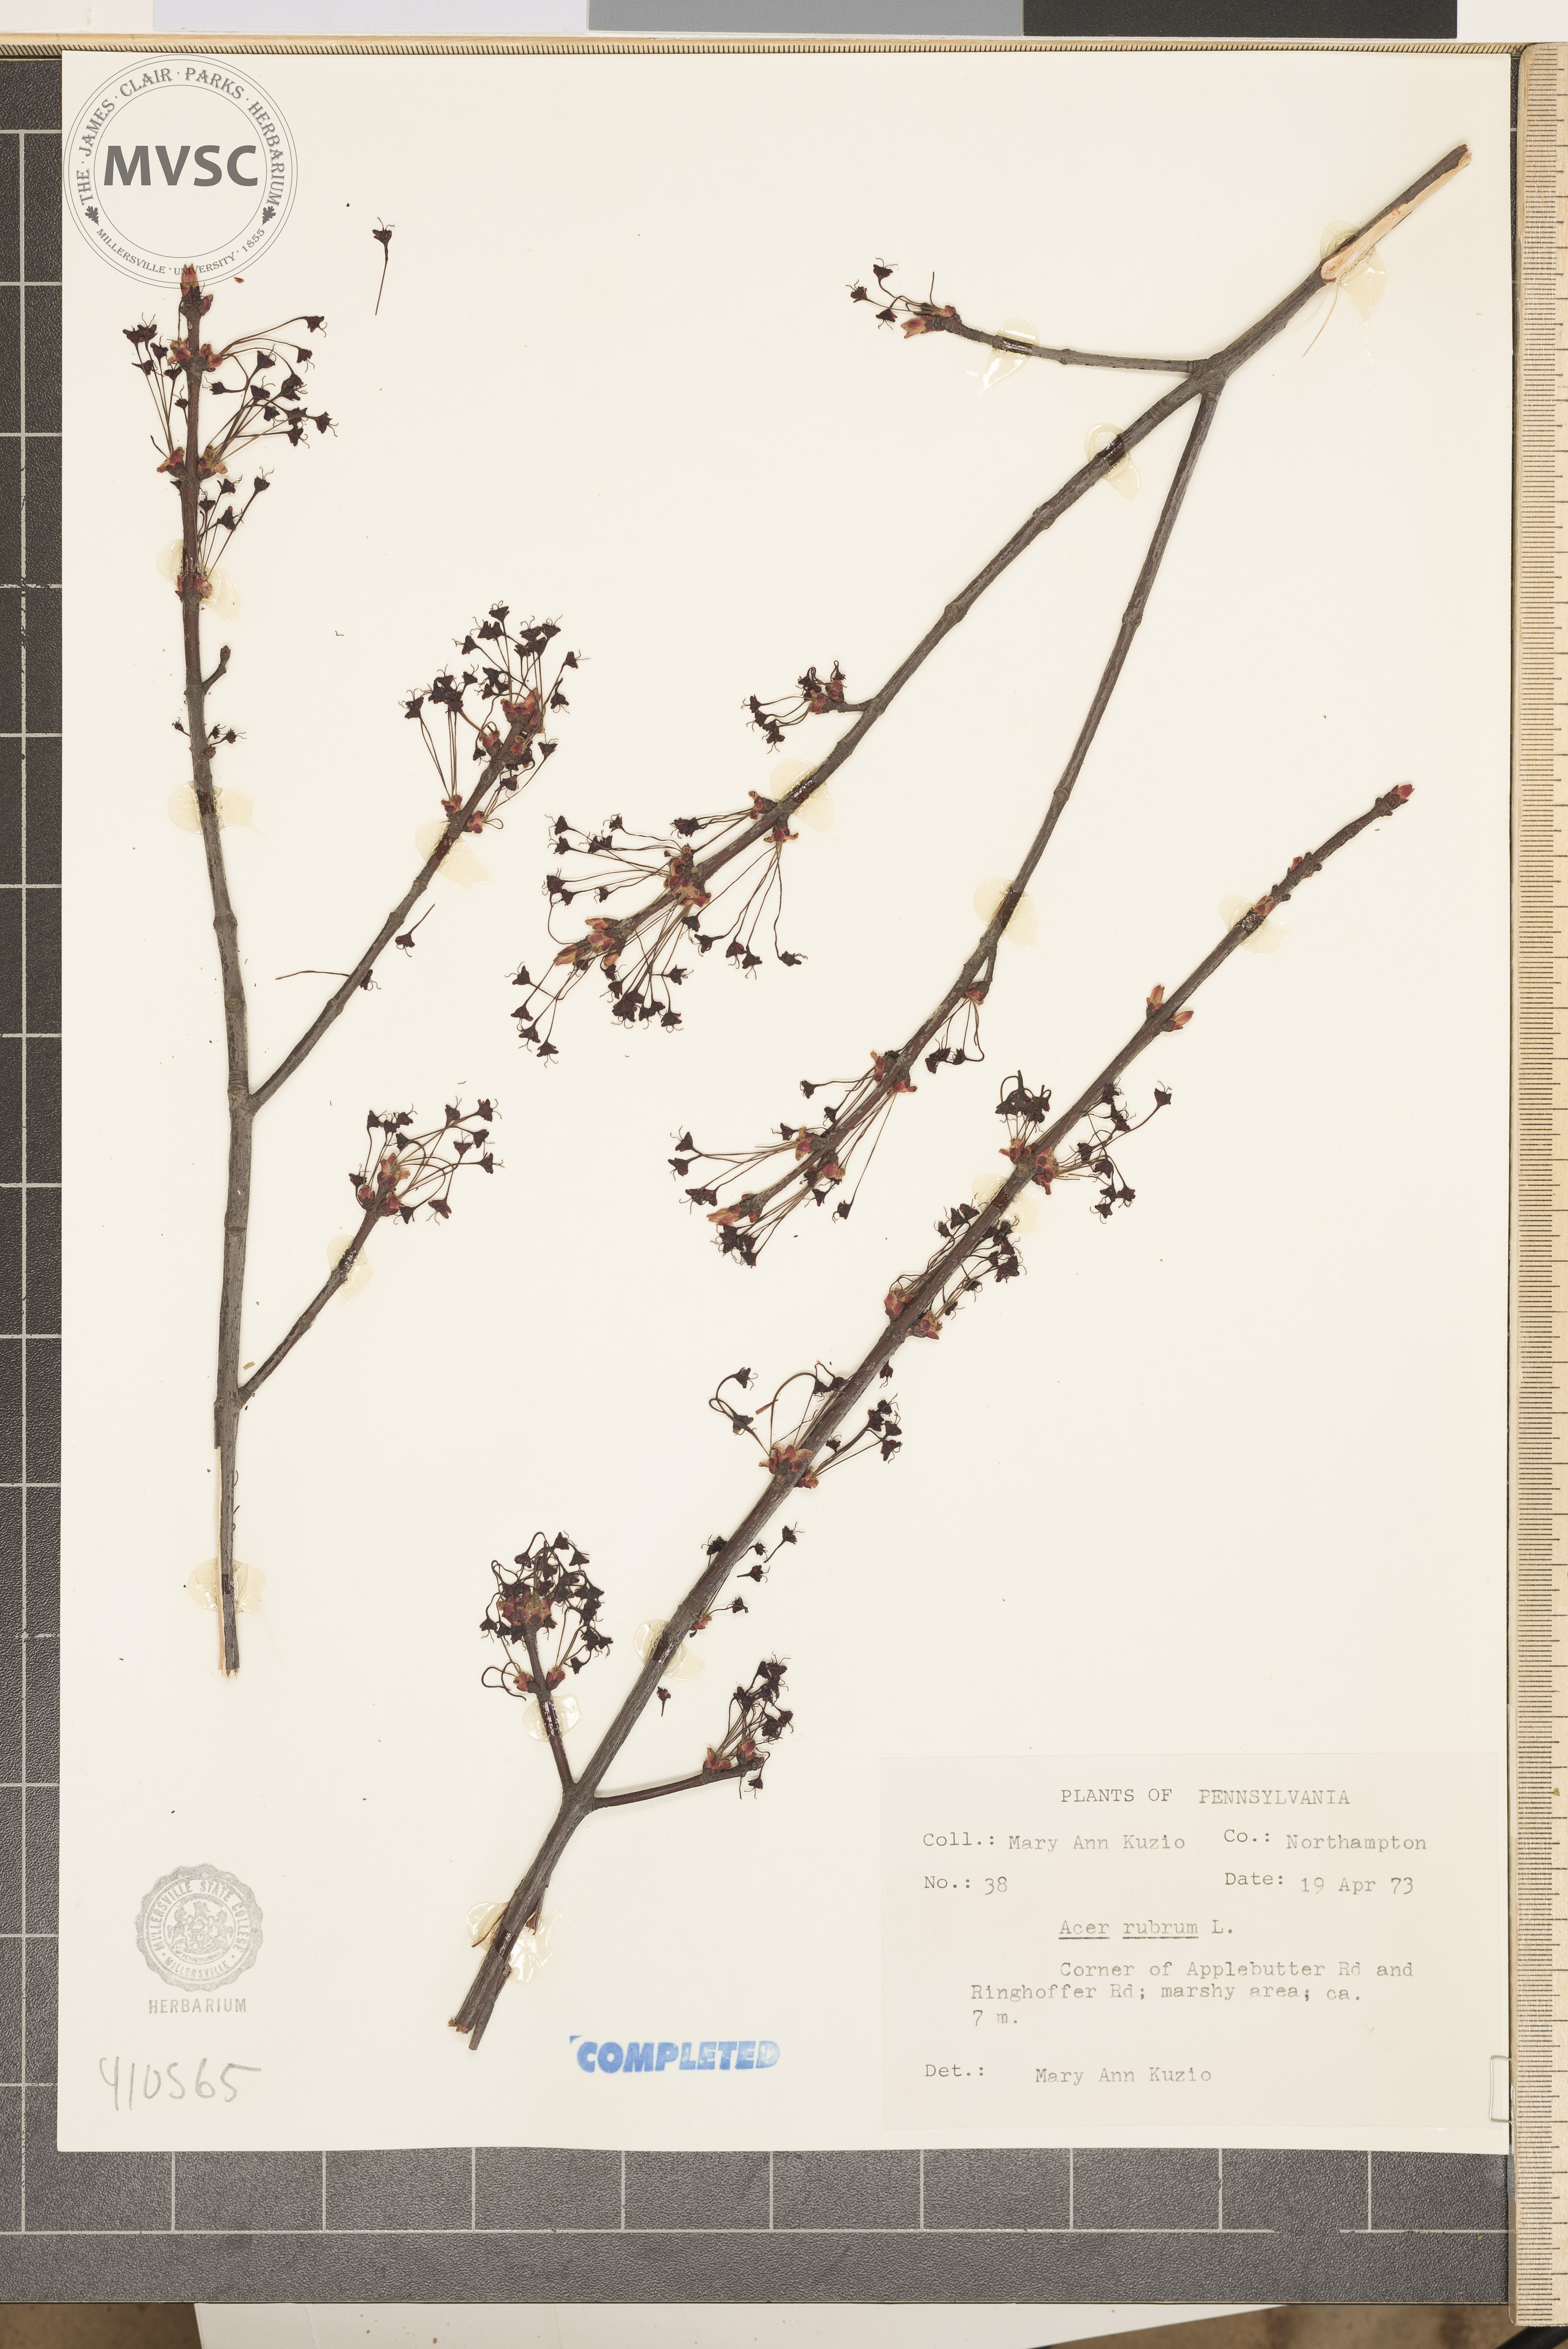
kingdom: Plantae
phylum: Tracheophyta
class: Magnoliopsida
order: Sapindales
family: Sapindaceae
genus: Acer
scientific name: Acer rubrum
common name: Red maple
